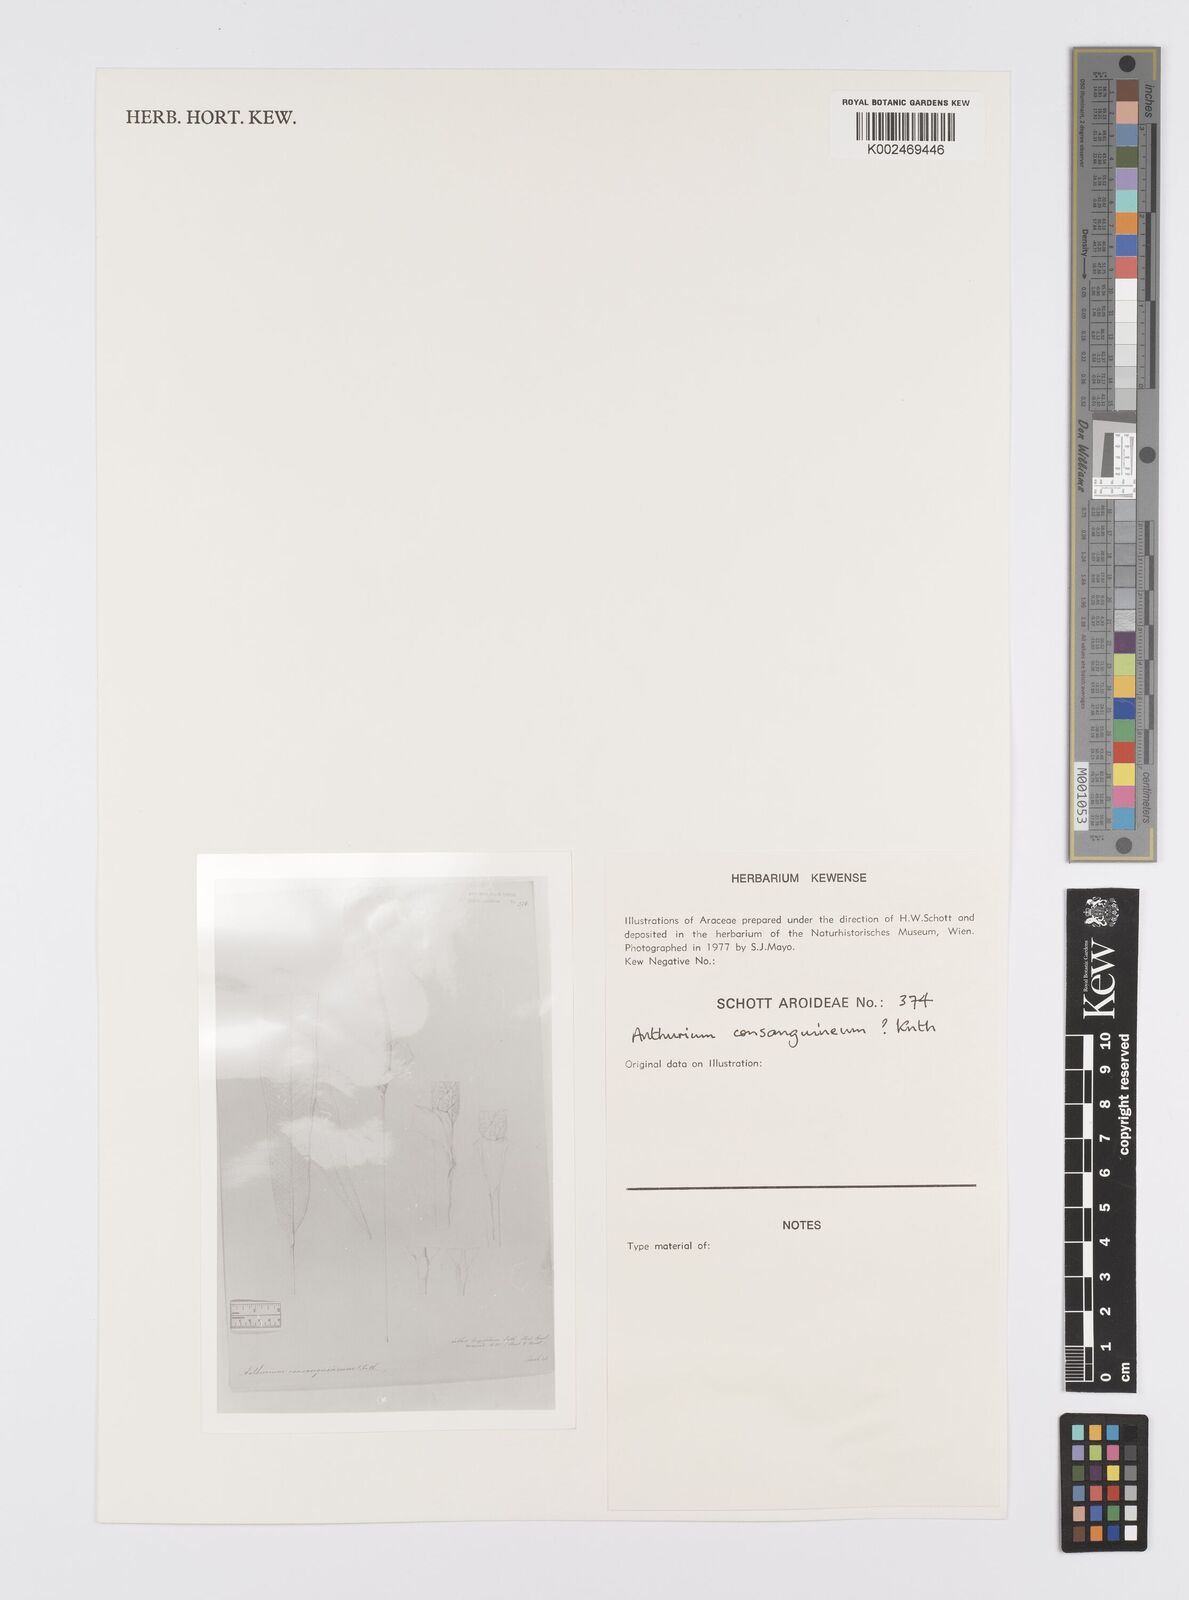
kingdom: Plantae
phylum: Tracheophyta
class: Liliopsida
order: Alismatales
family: Araceae
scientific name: Araceae
